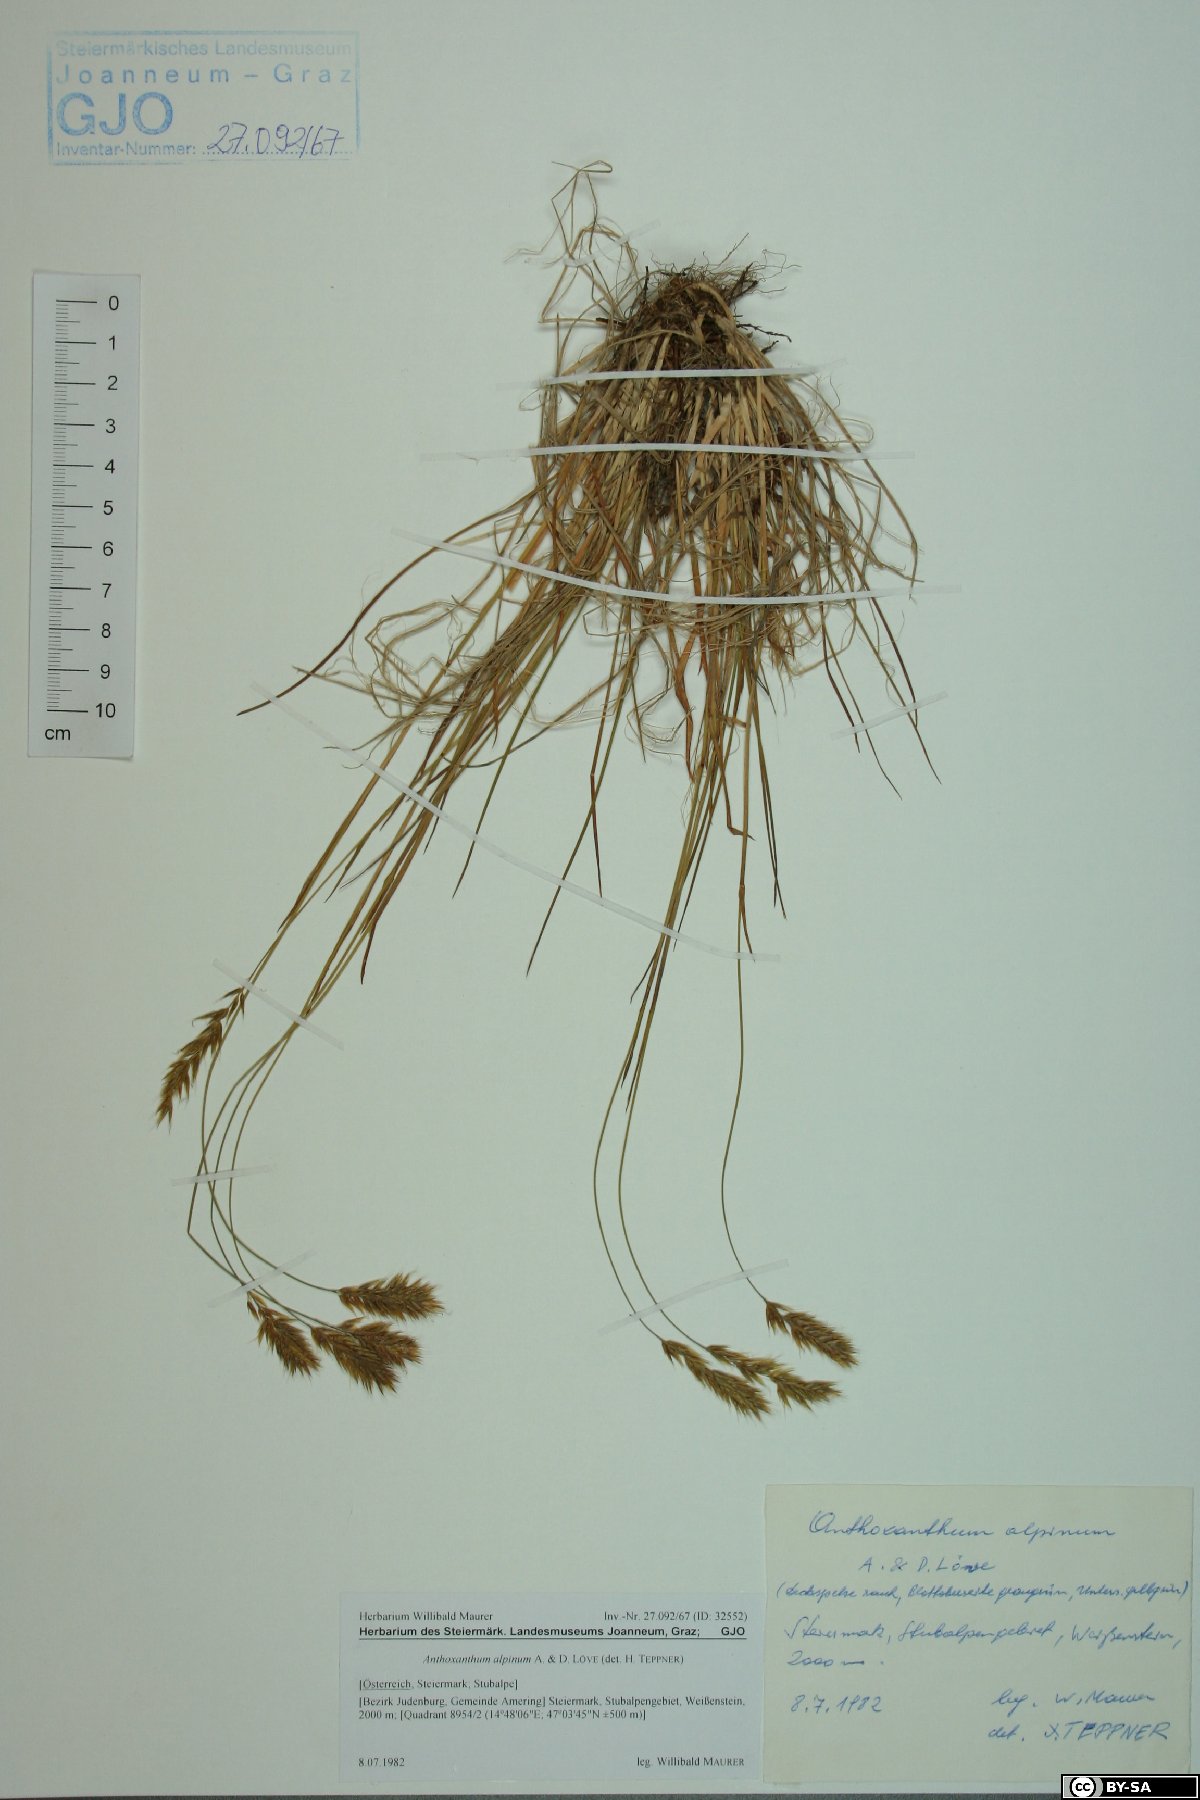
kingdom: Plantae
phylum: Tracheophyta
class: Liliopsida
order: Poales
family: Poaceae
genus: Anthoxanthum
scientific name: Anthoxanthum nipponicum
